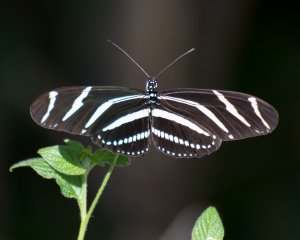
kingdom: Animalia
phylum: Arthropoda
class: Insecta
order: Lepidoptera
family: Nymphalidae
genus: Heliconius
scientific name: Heliconius charithonia
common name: Zebra Longwing
